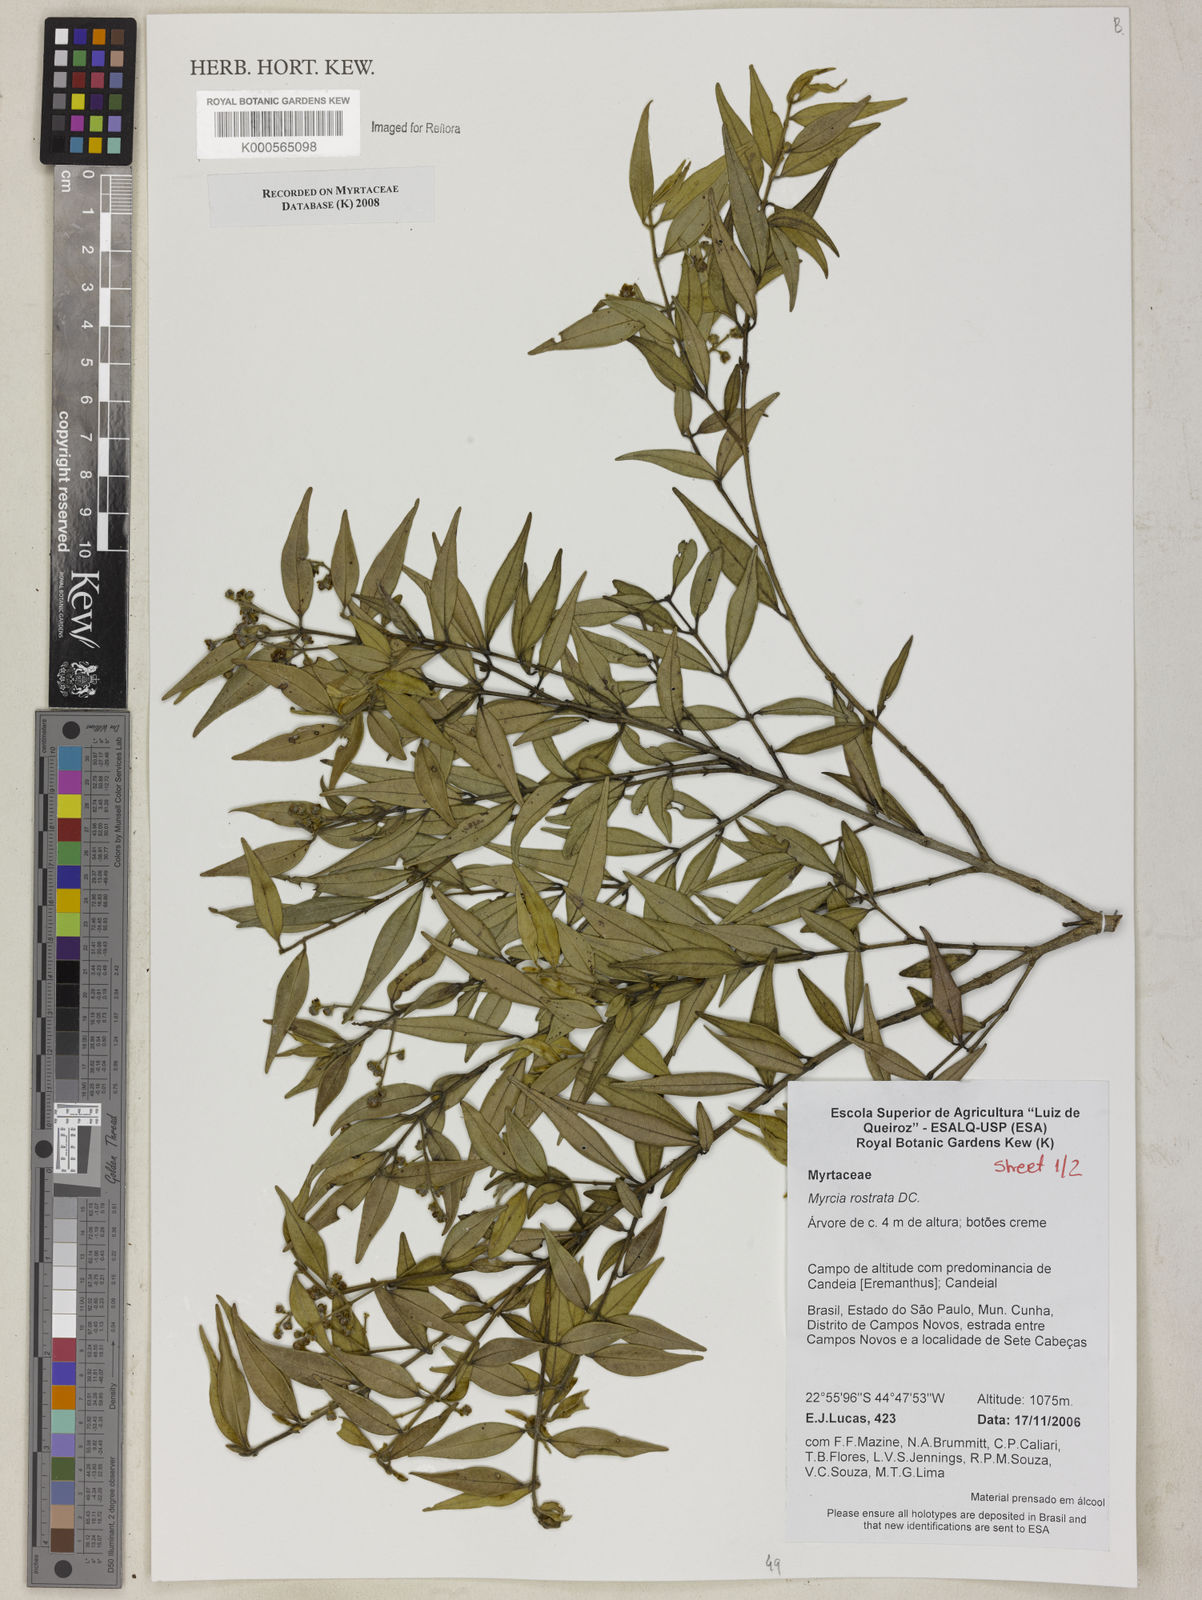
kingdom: Plantae
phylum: Tracheophyta
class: Magnoliopsida
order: Myrtales
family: Myrtaceae
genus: Myrcia
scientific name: Myrcia splendens
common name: Surinam cherry
